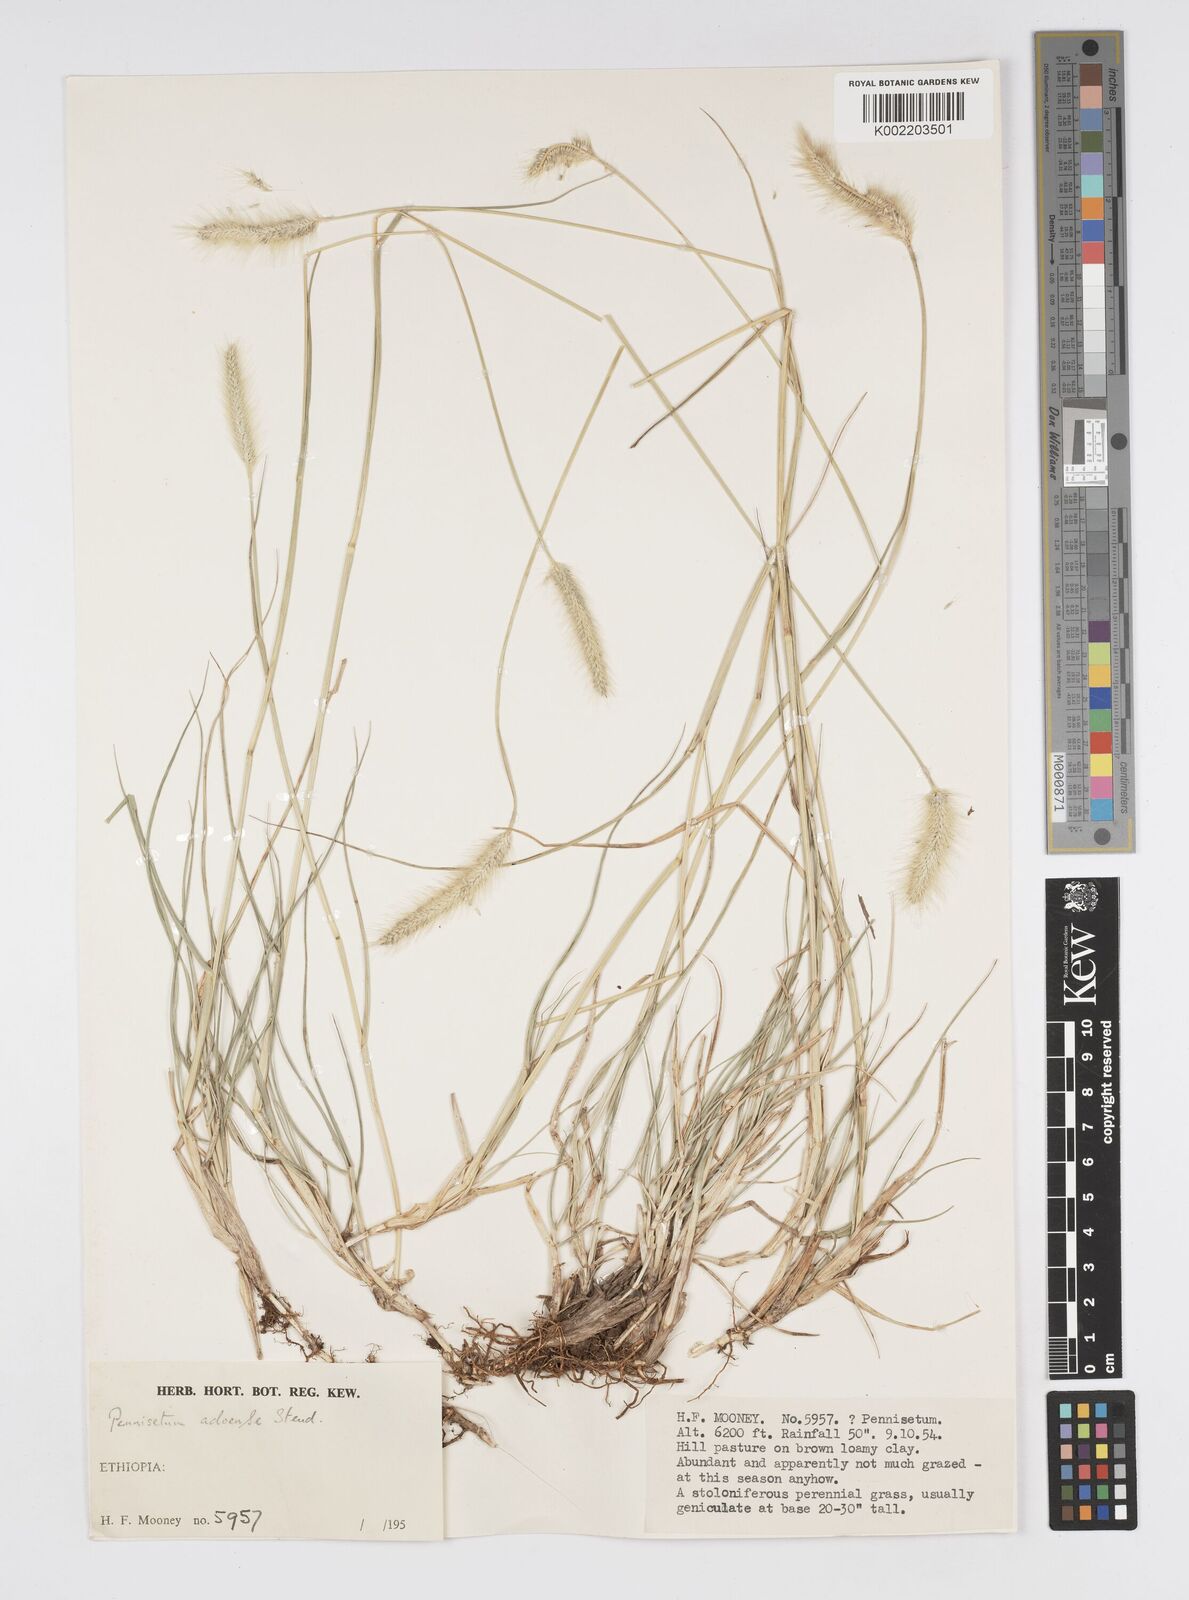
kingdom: Plantae
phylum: Tracheophyta
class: Liliopsida
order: Poales
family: Poaceae
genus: Cenchrus
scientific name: Cenchrus geniculatus
